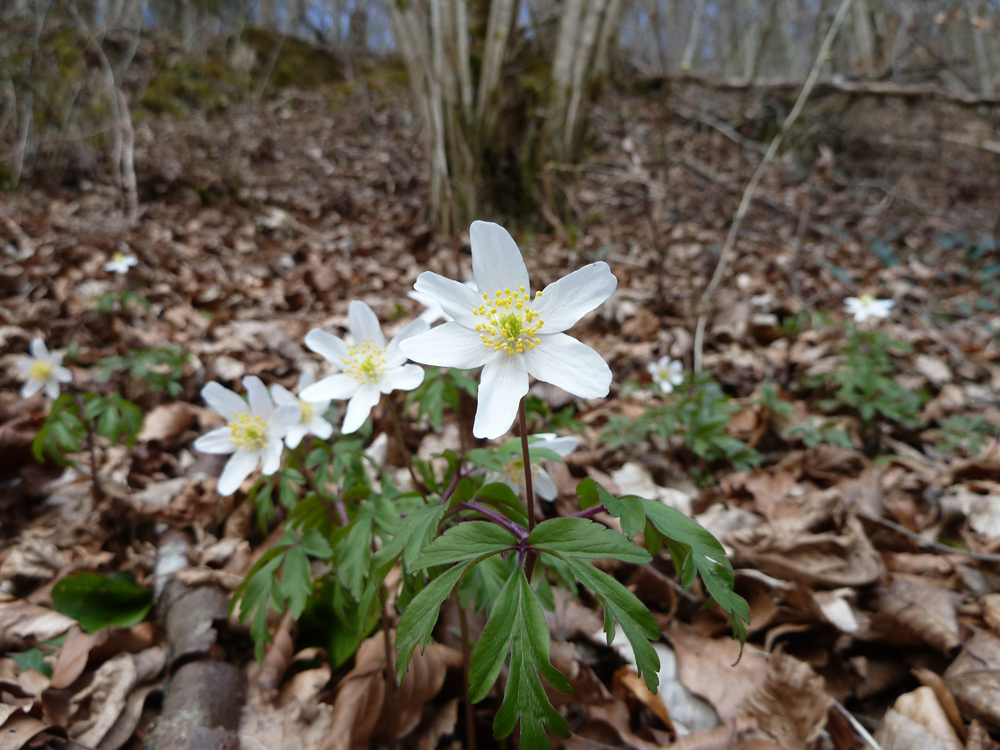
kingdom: Plantae
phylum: Tracheophyta
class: Magnoliopsida
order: Ranunculales
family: Ranunculaceae
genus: Anemone
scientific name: Anemone nemorosa
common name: Wood anemone
